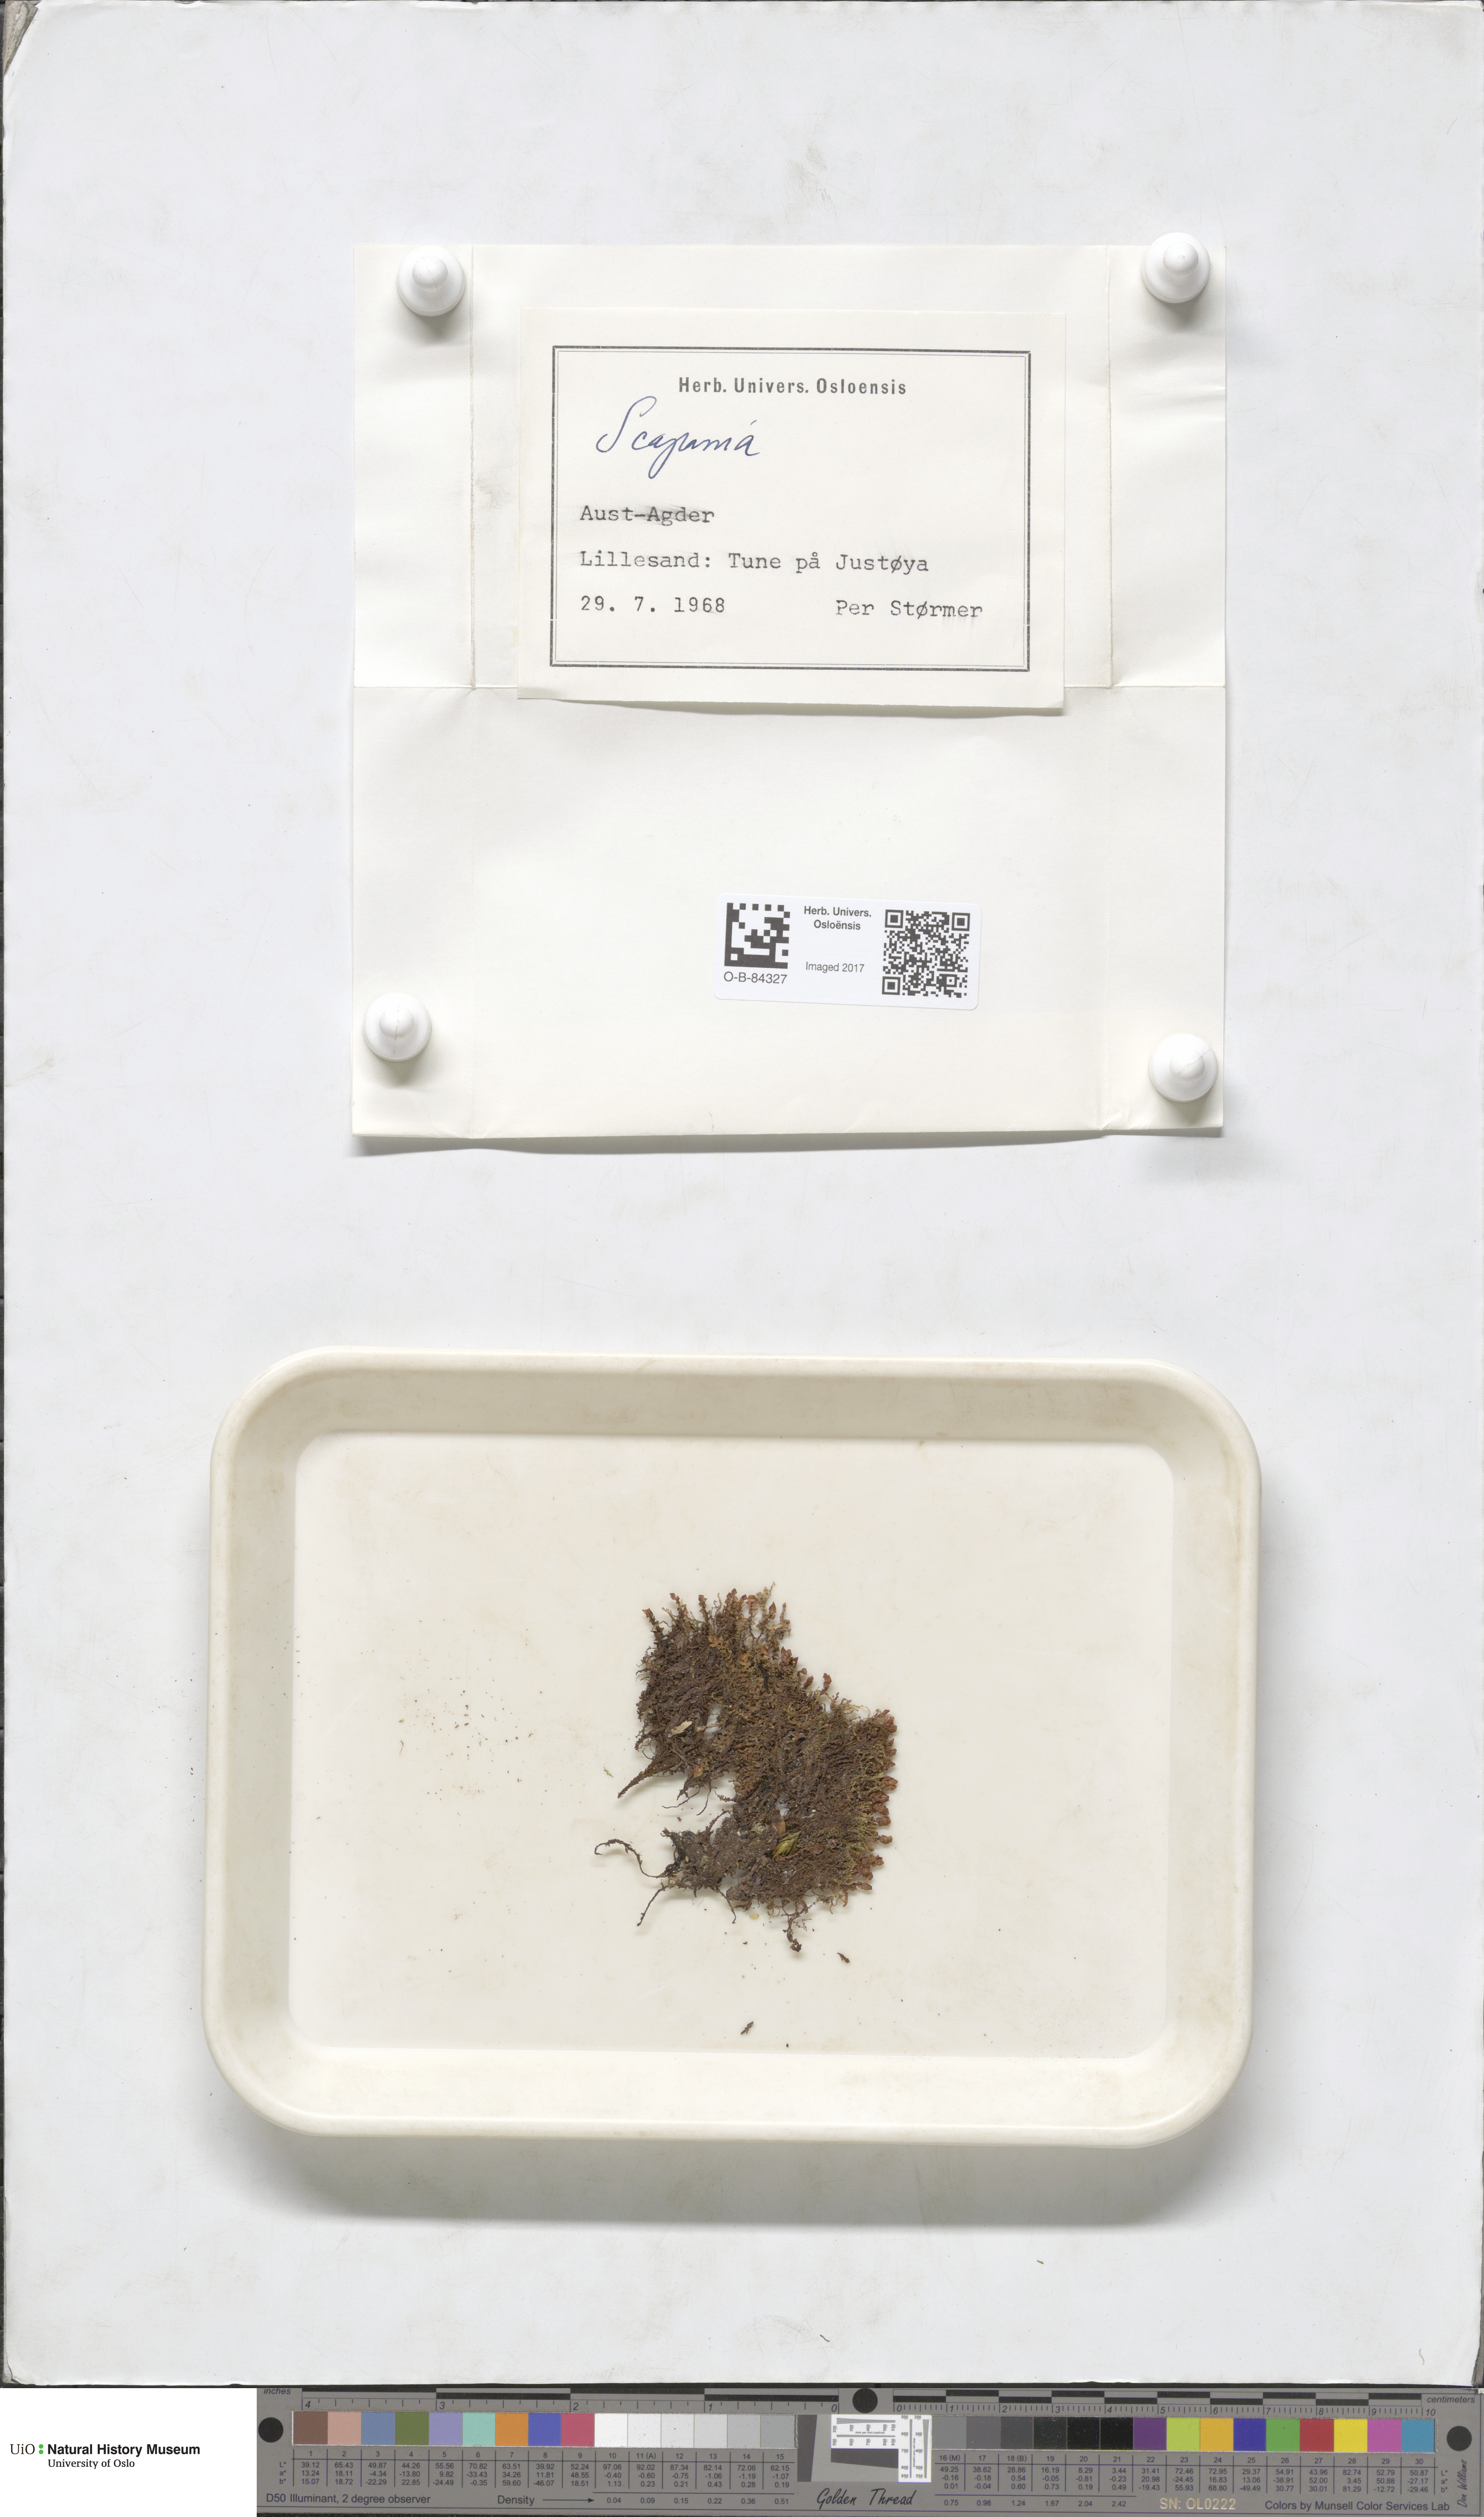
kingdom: Plantae
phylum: Marchantiophyta
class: Jungermanniopsida
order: Jungermanniales
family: Scapaniaceae
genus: Scapania
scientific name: Scapania
